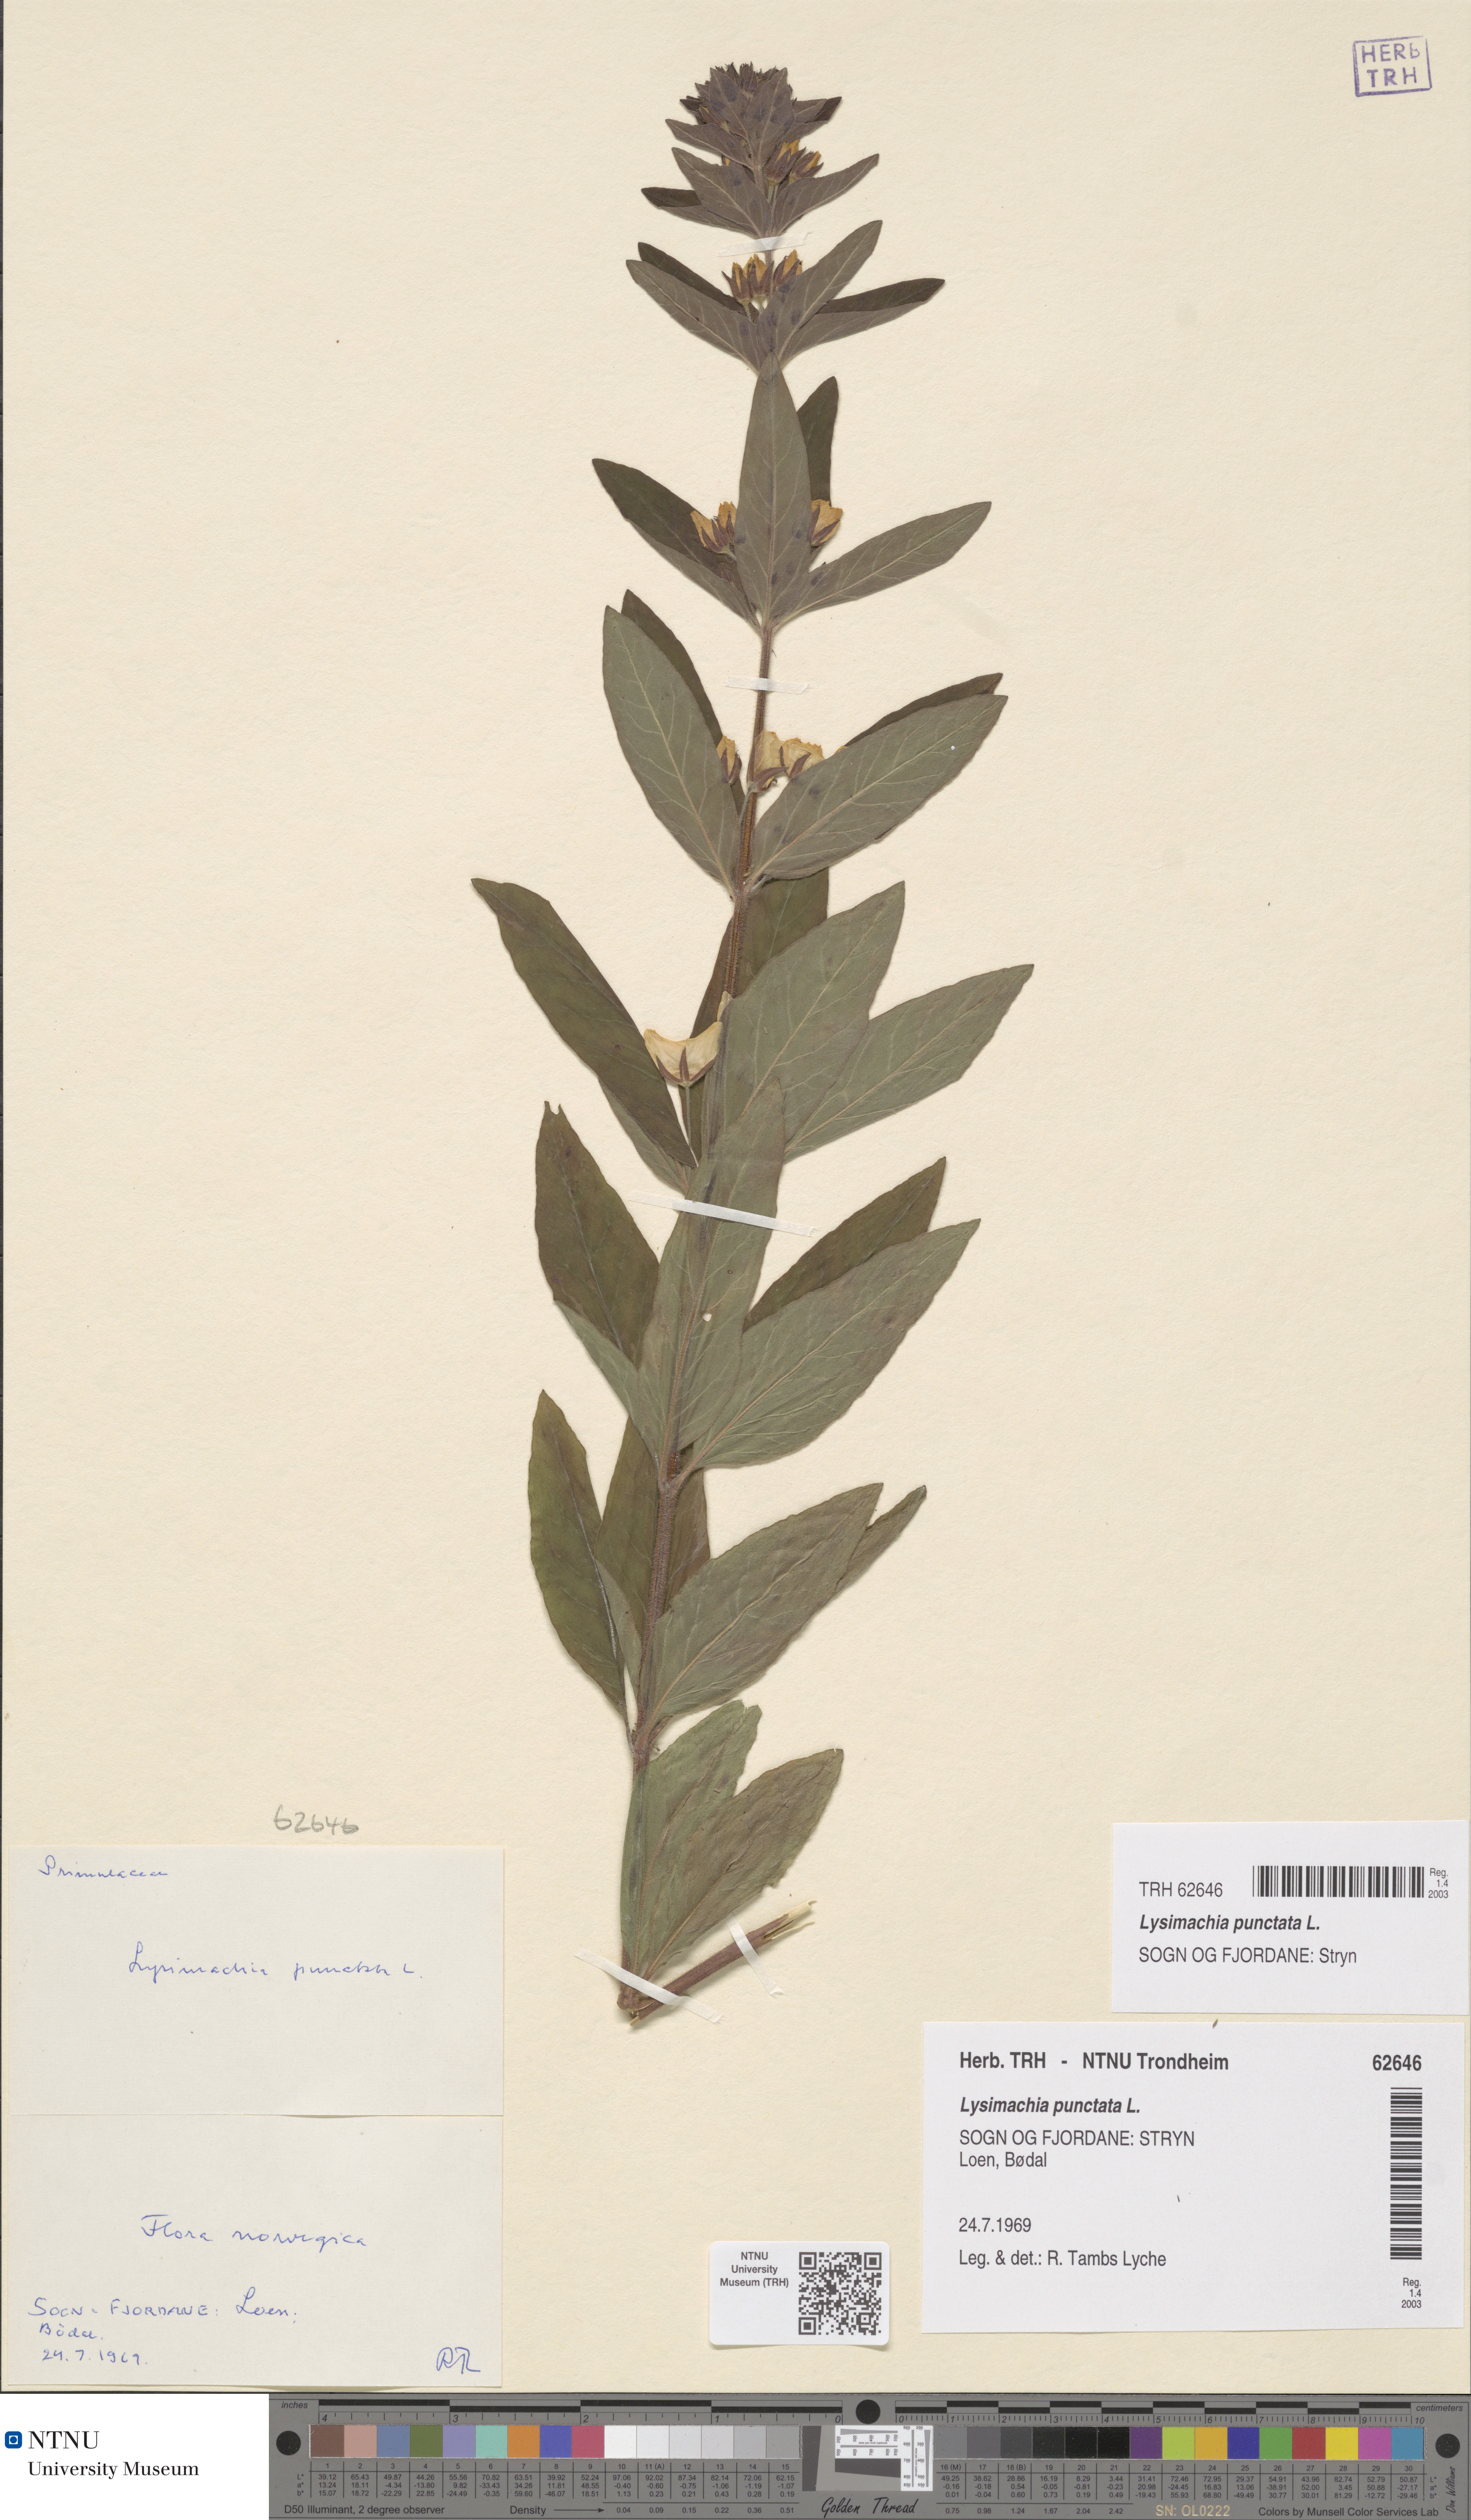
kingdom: Plantae
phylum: Tracheophyta
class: Magnoliopsida
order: Ericales
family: Primulaceae
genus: Lysimachia
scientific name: Lysimachia punctata
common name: Dotted loosestrife
